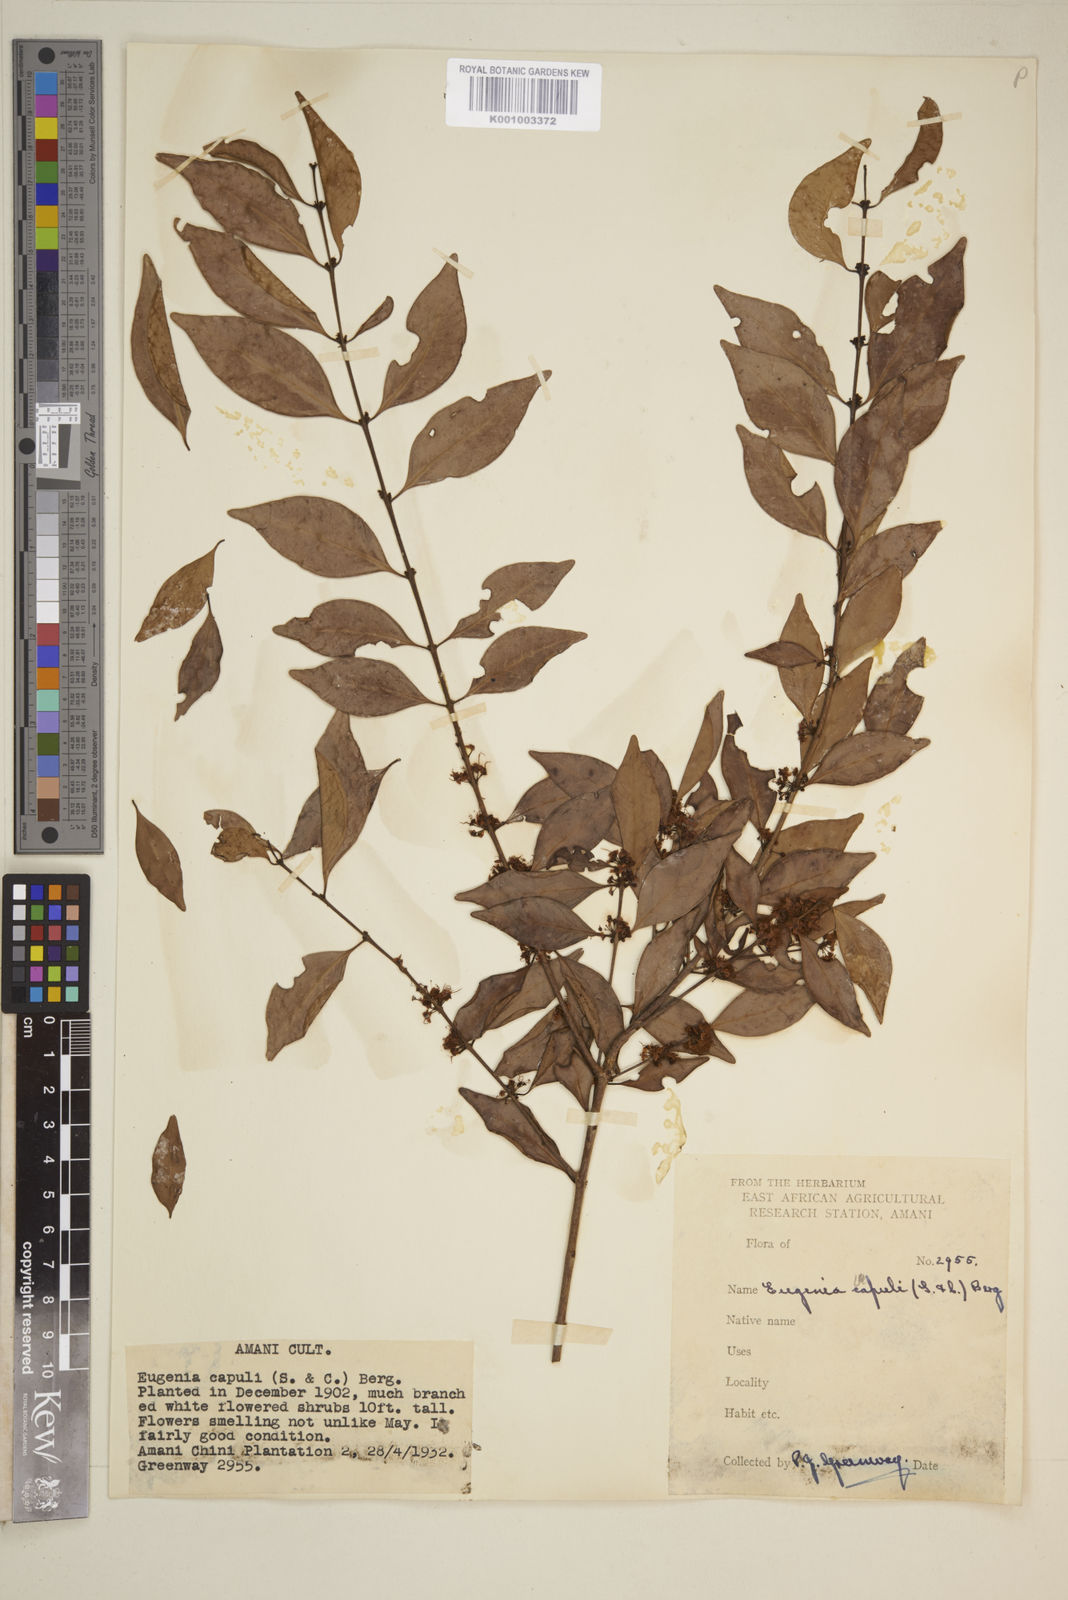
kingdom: Plantae
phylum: Tracheophyta
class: Magnoliopsida
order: Myrtales
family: Myrtaceae
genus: Eugenia
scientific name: Eugenia capuli
